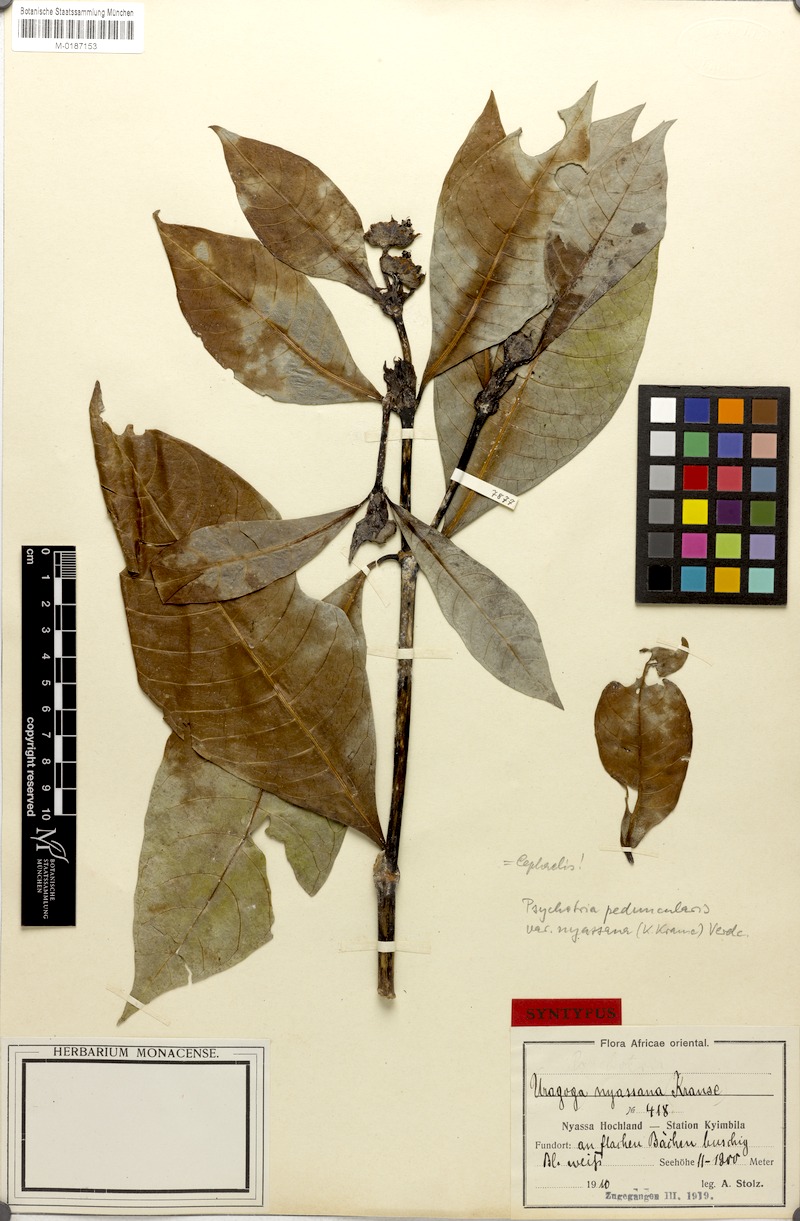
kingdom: Plantae
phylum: Tracheophyta
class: Magnoliopsida
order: Gentianales
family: Rubiaceae
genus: Psychotria
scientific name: Psychotria peduncularis
